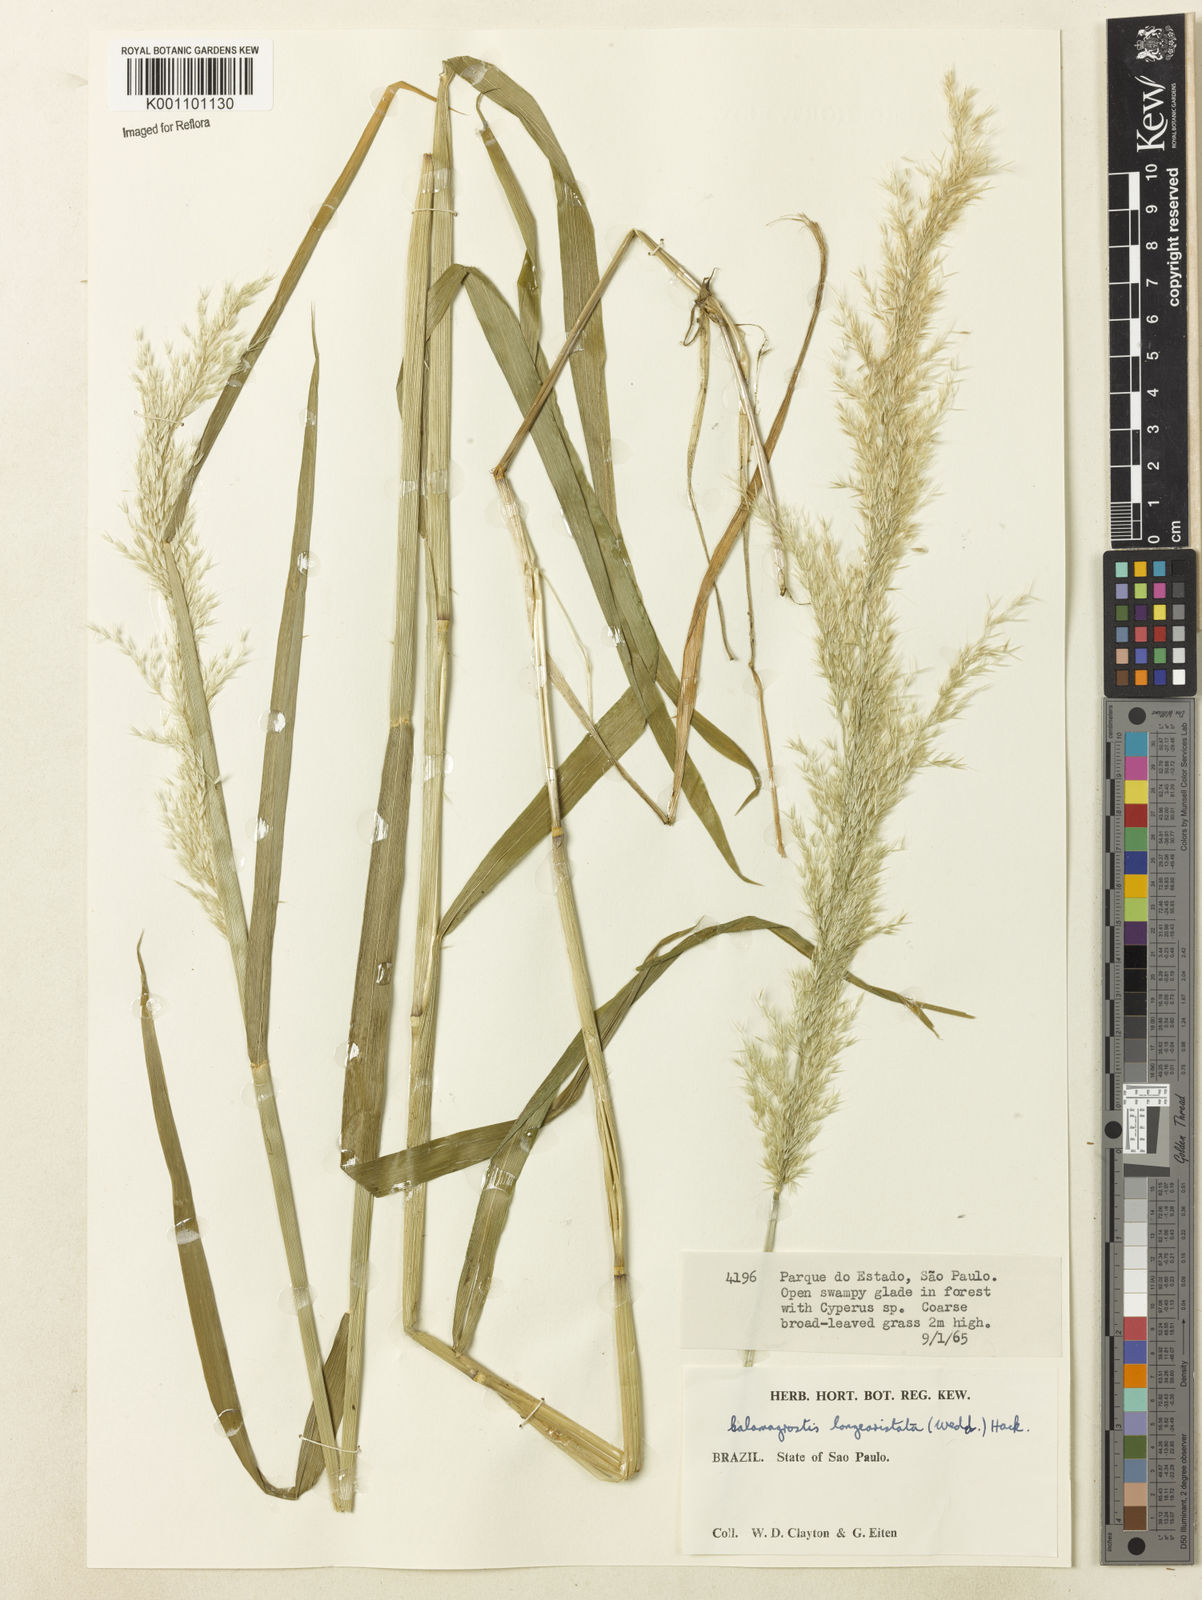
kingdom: Plantae
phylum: Tracheophyta
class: Liliopsida
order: Poales
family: Poaceae
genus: Cinnagrostis
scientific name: Cinnagrostis rupestris
